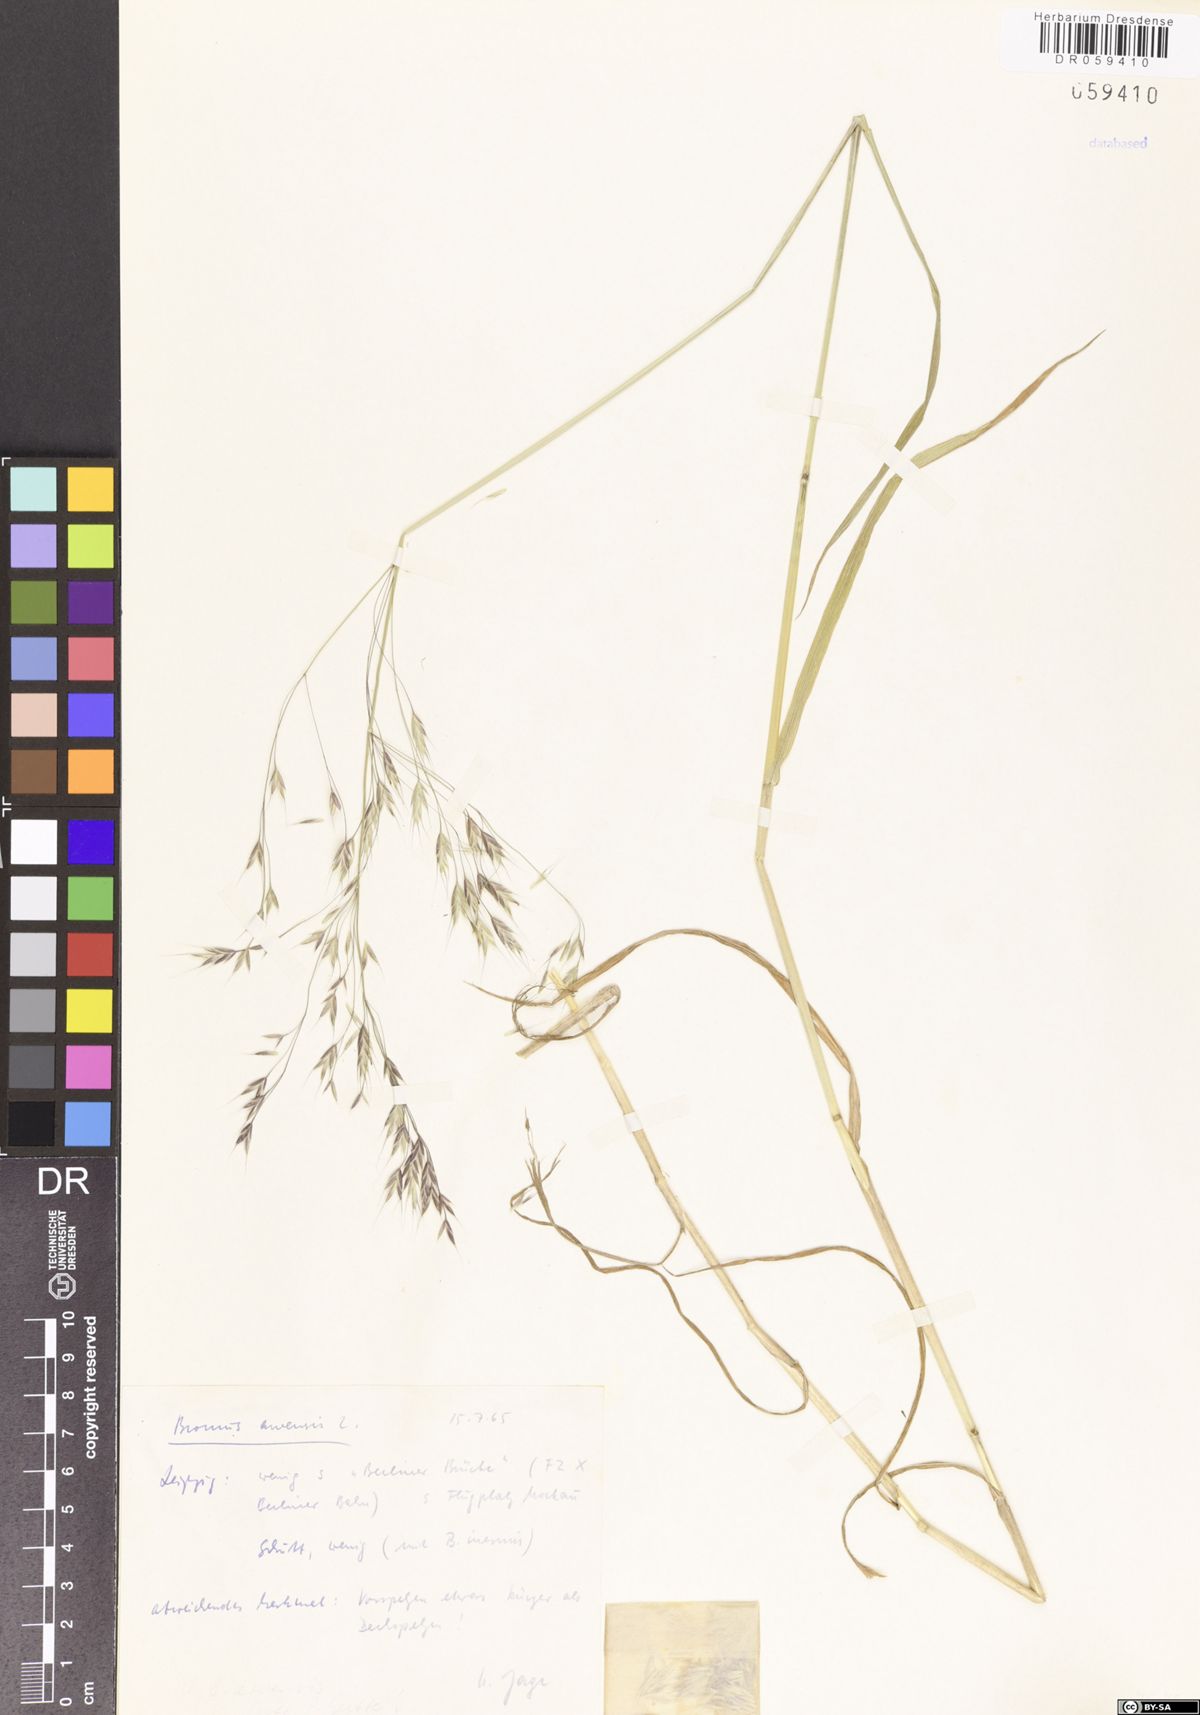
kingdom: Plantae
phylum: Tracheophyta
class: Liliopsida
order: Poales
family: Poaceae
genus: Bromus
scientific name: Bromus arvensis
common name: Field brome
